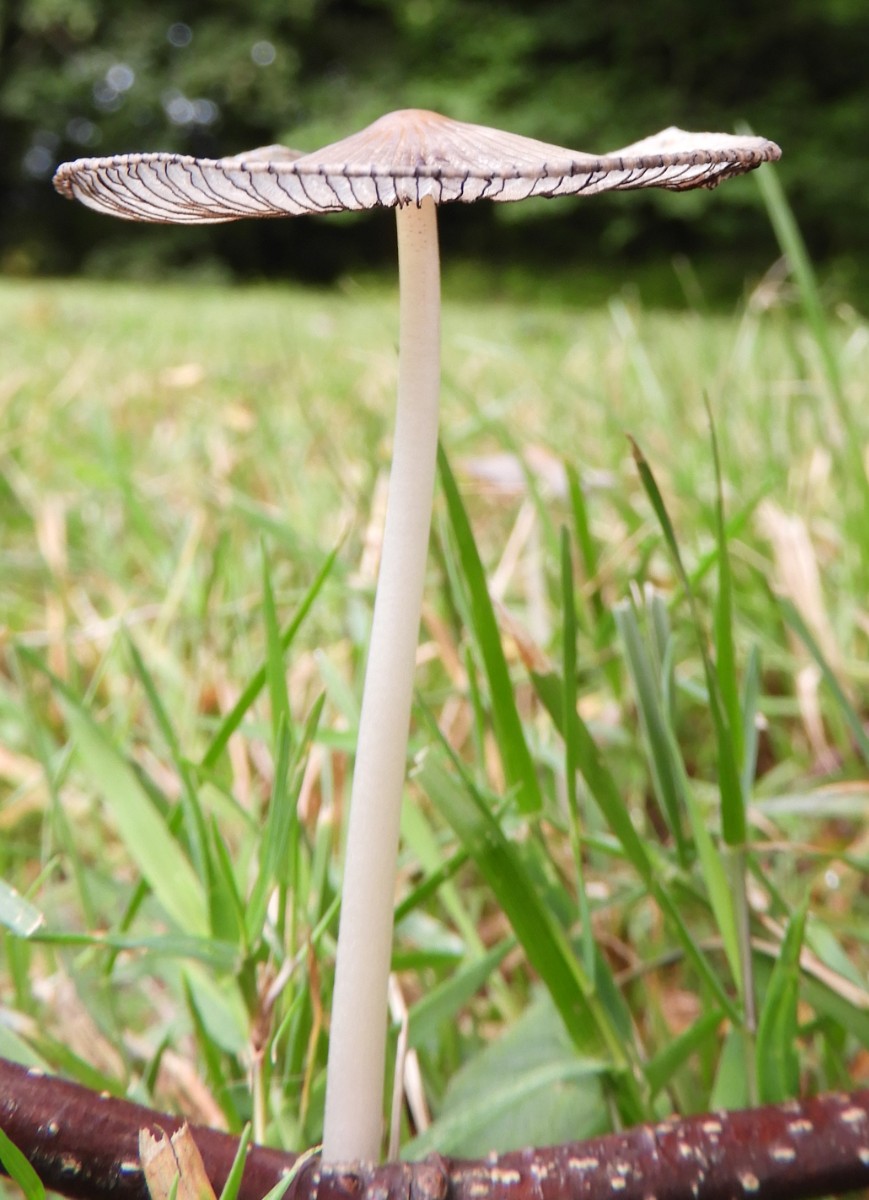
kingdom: Fungi
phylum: Basidiomycota
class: Agaricomycetes
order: Agaricales
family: Psathyrellaceae
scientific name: Psathyrellaceae
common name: mørkhatfamilien
